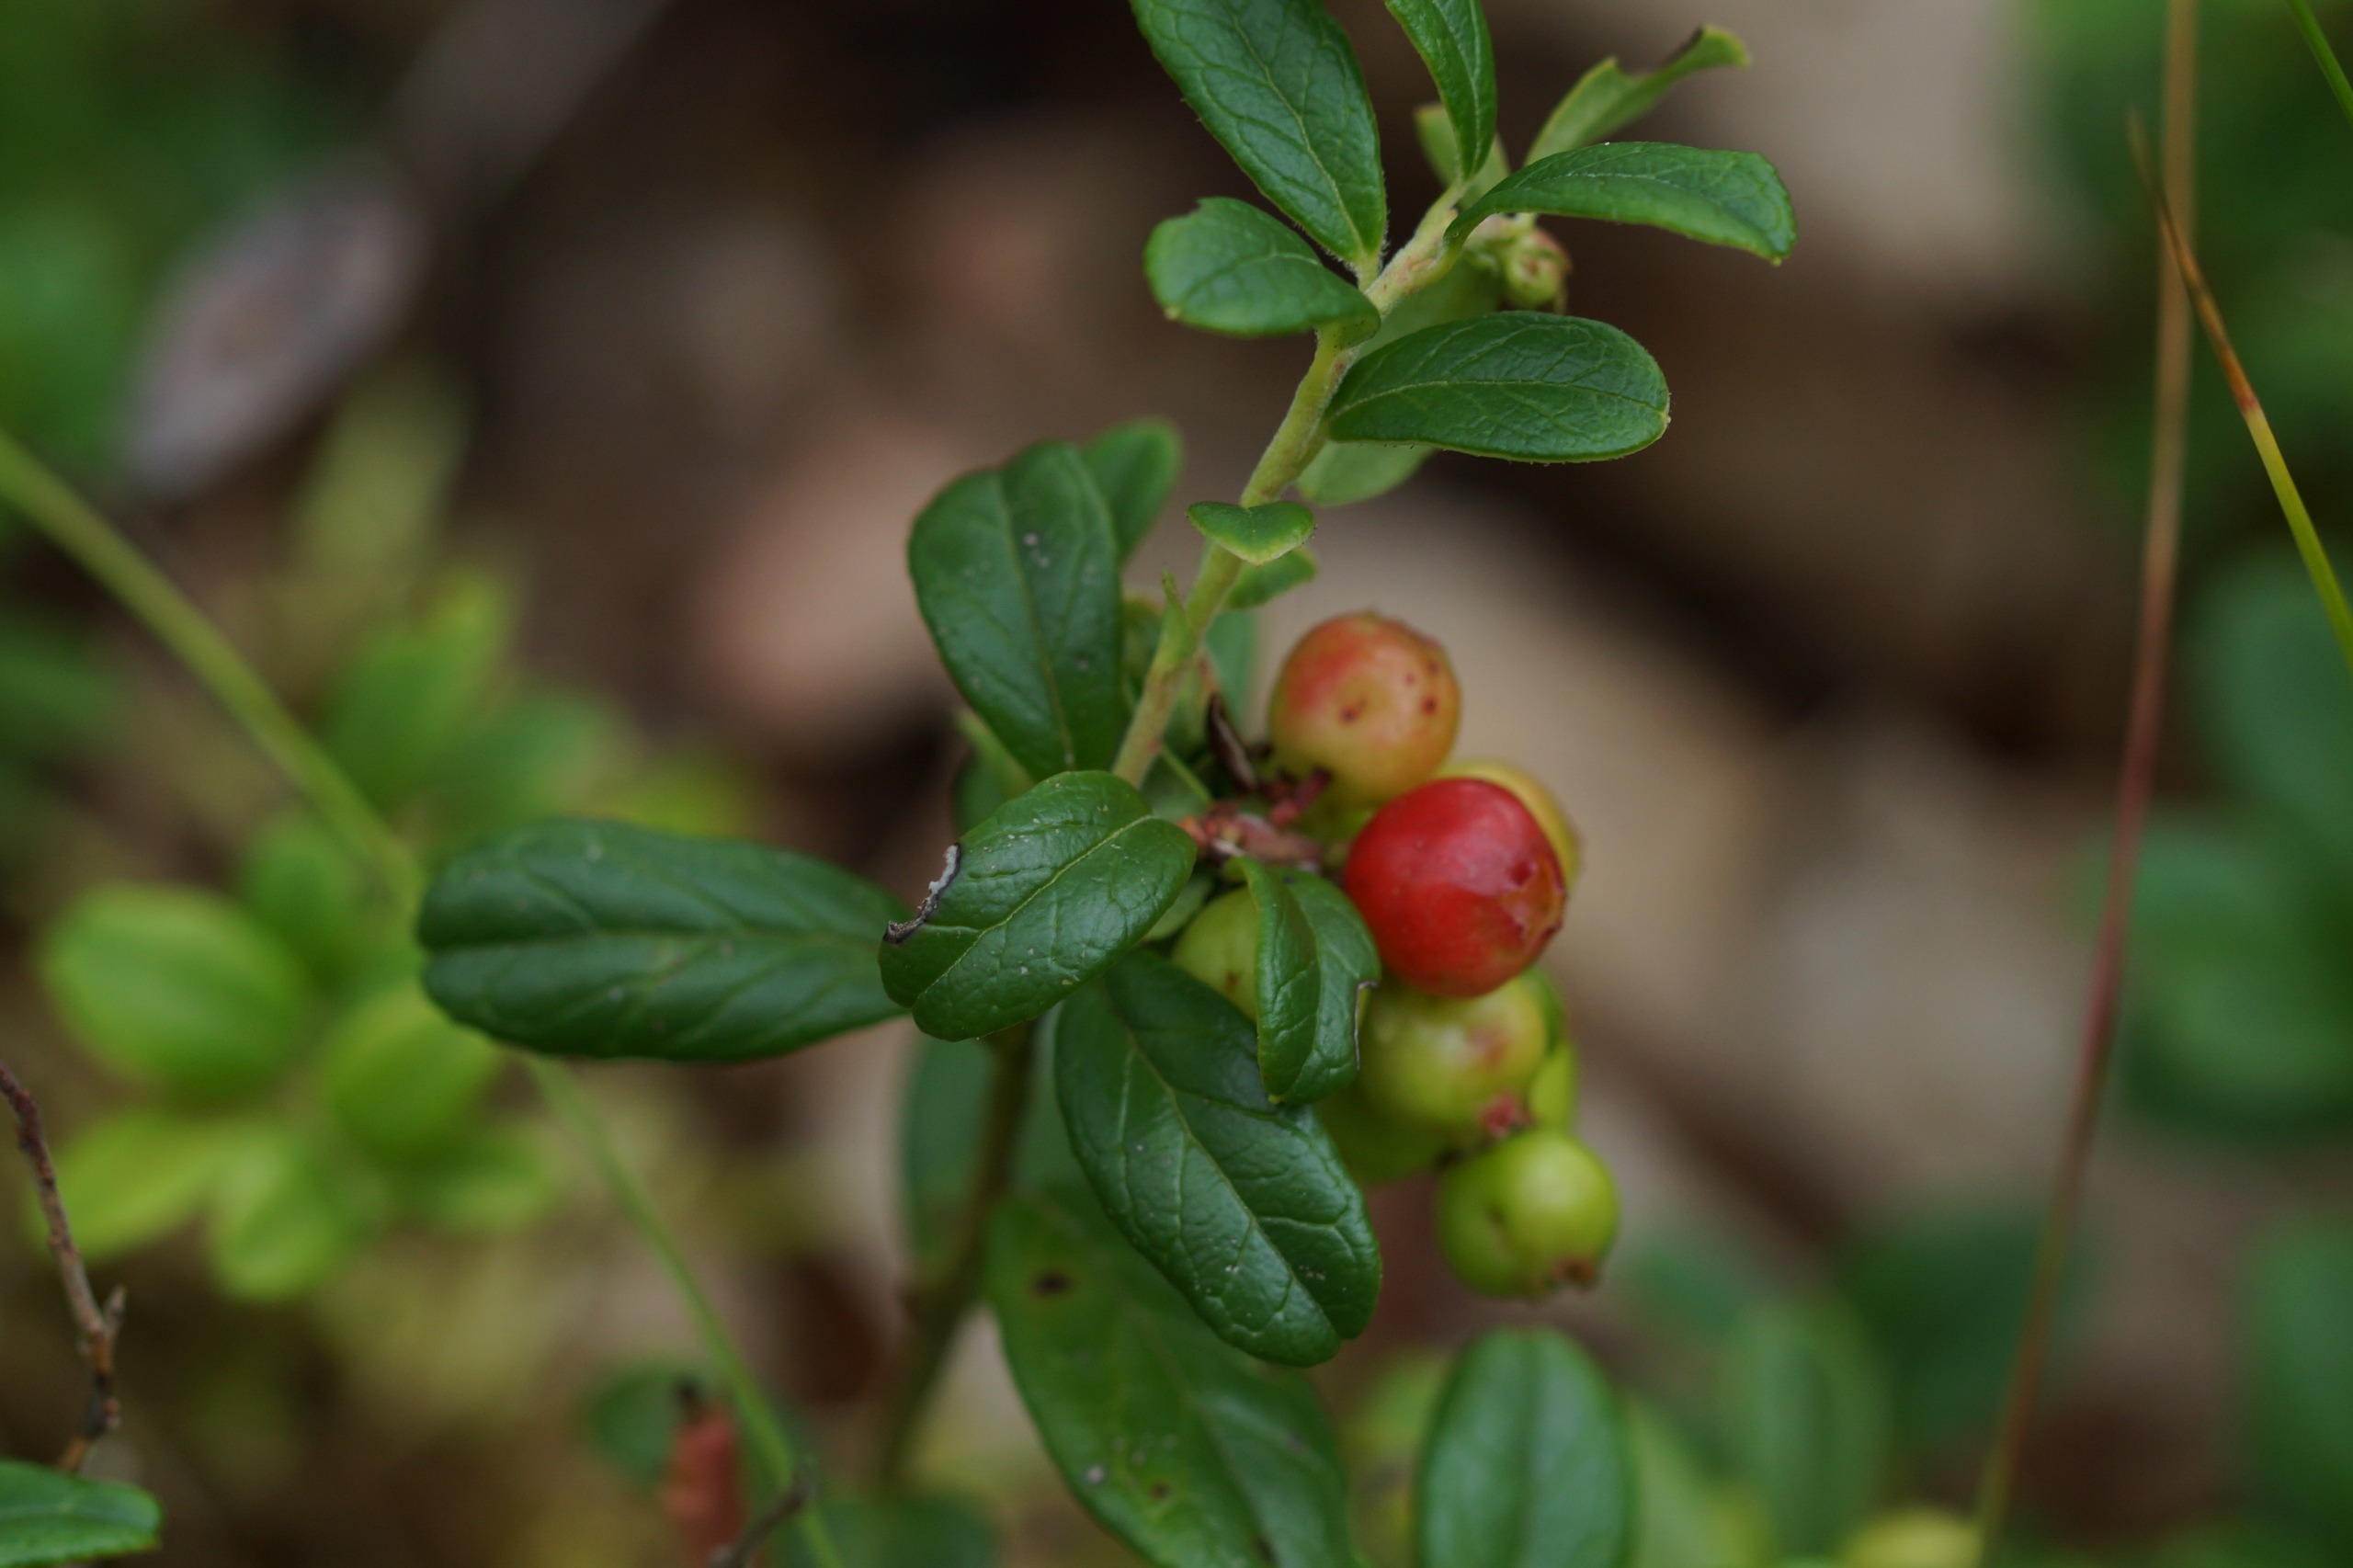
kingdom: Plantae
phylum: Tracheophyta
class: Magnoliopsida
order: Ericales
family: Ericaceae
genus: Vaccinium
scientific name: Vaccinium vitis-idaea
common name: Tyttebær
